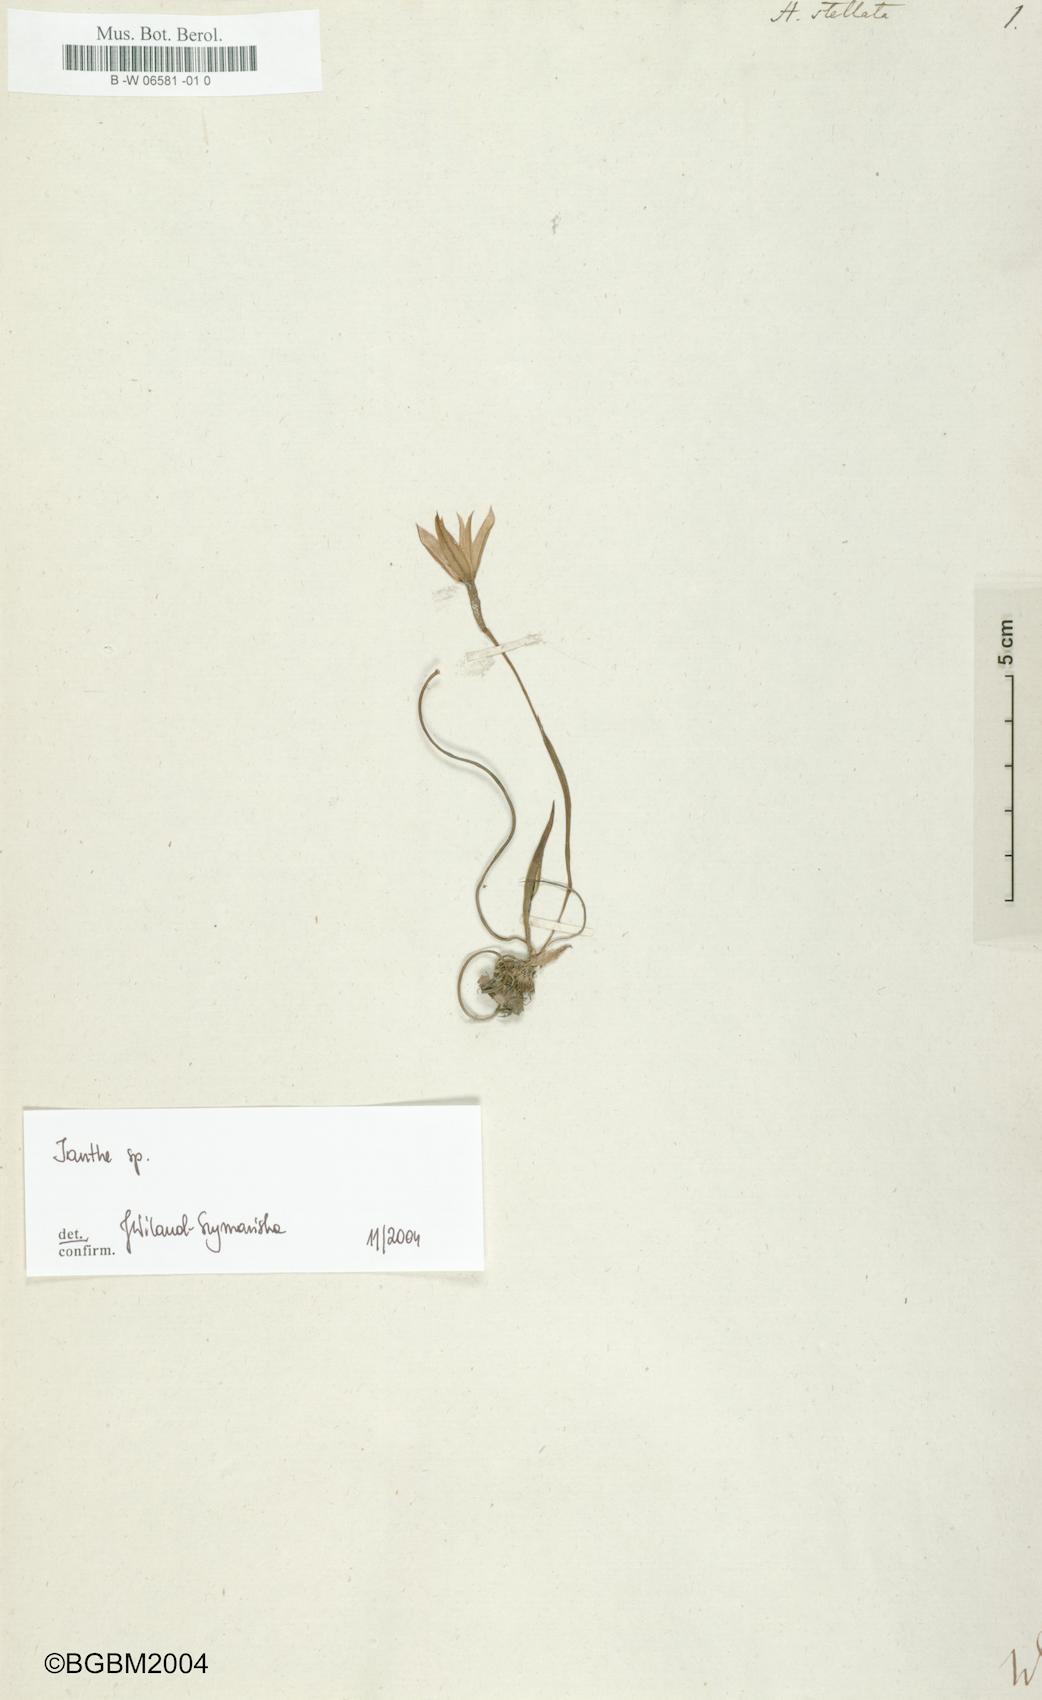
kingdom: Plantae
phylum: Tracheophyta
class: Liliopsida
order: Asparagales
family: Hypoxidaceae
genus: Pauridia
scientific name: Pauridia capensis
